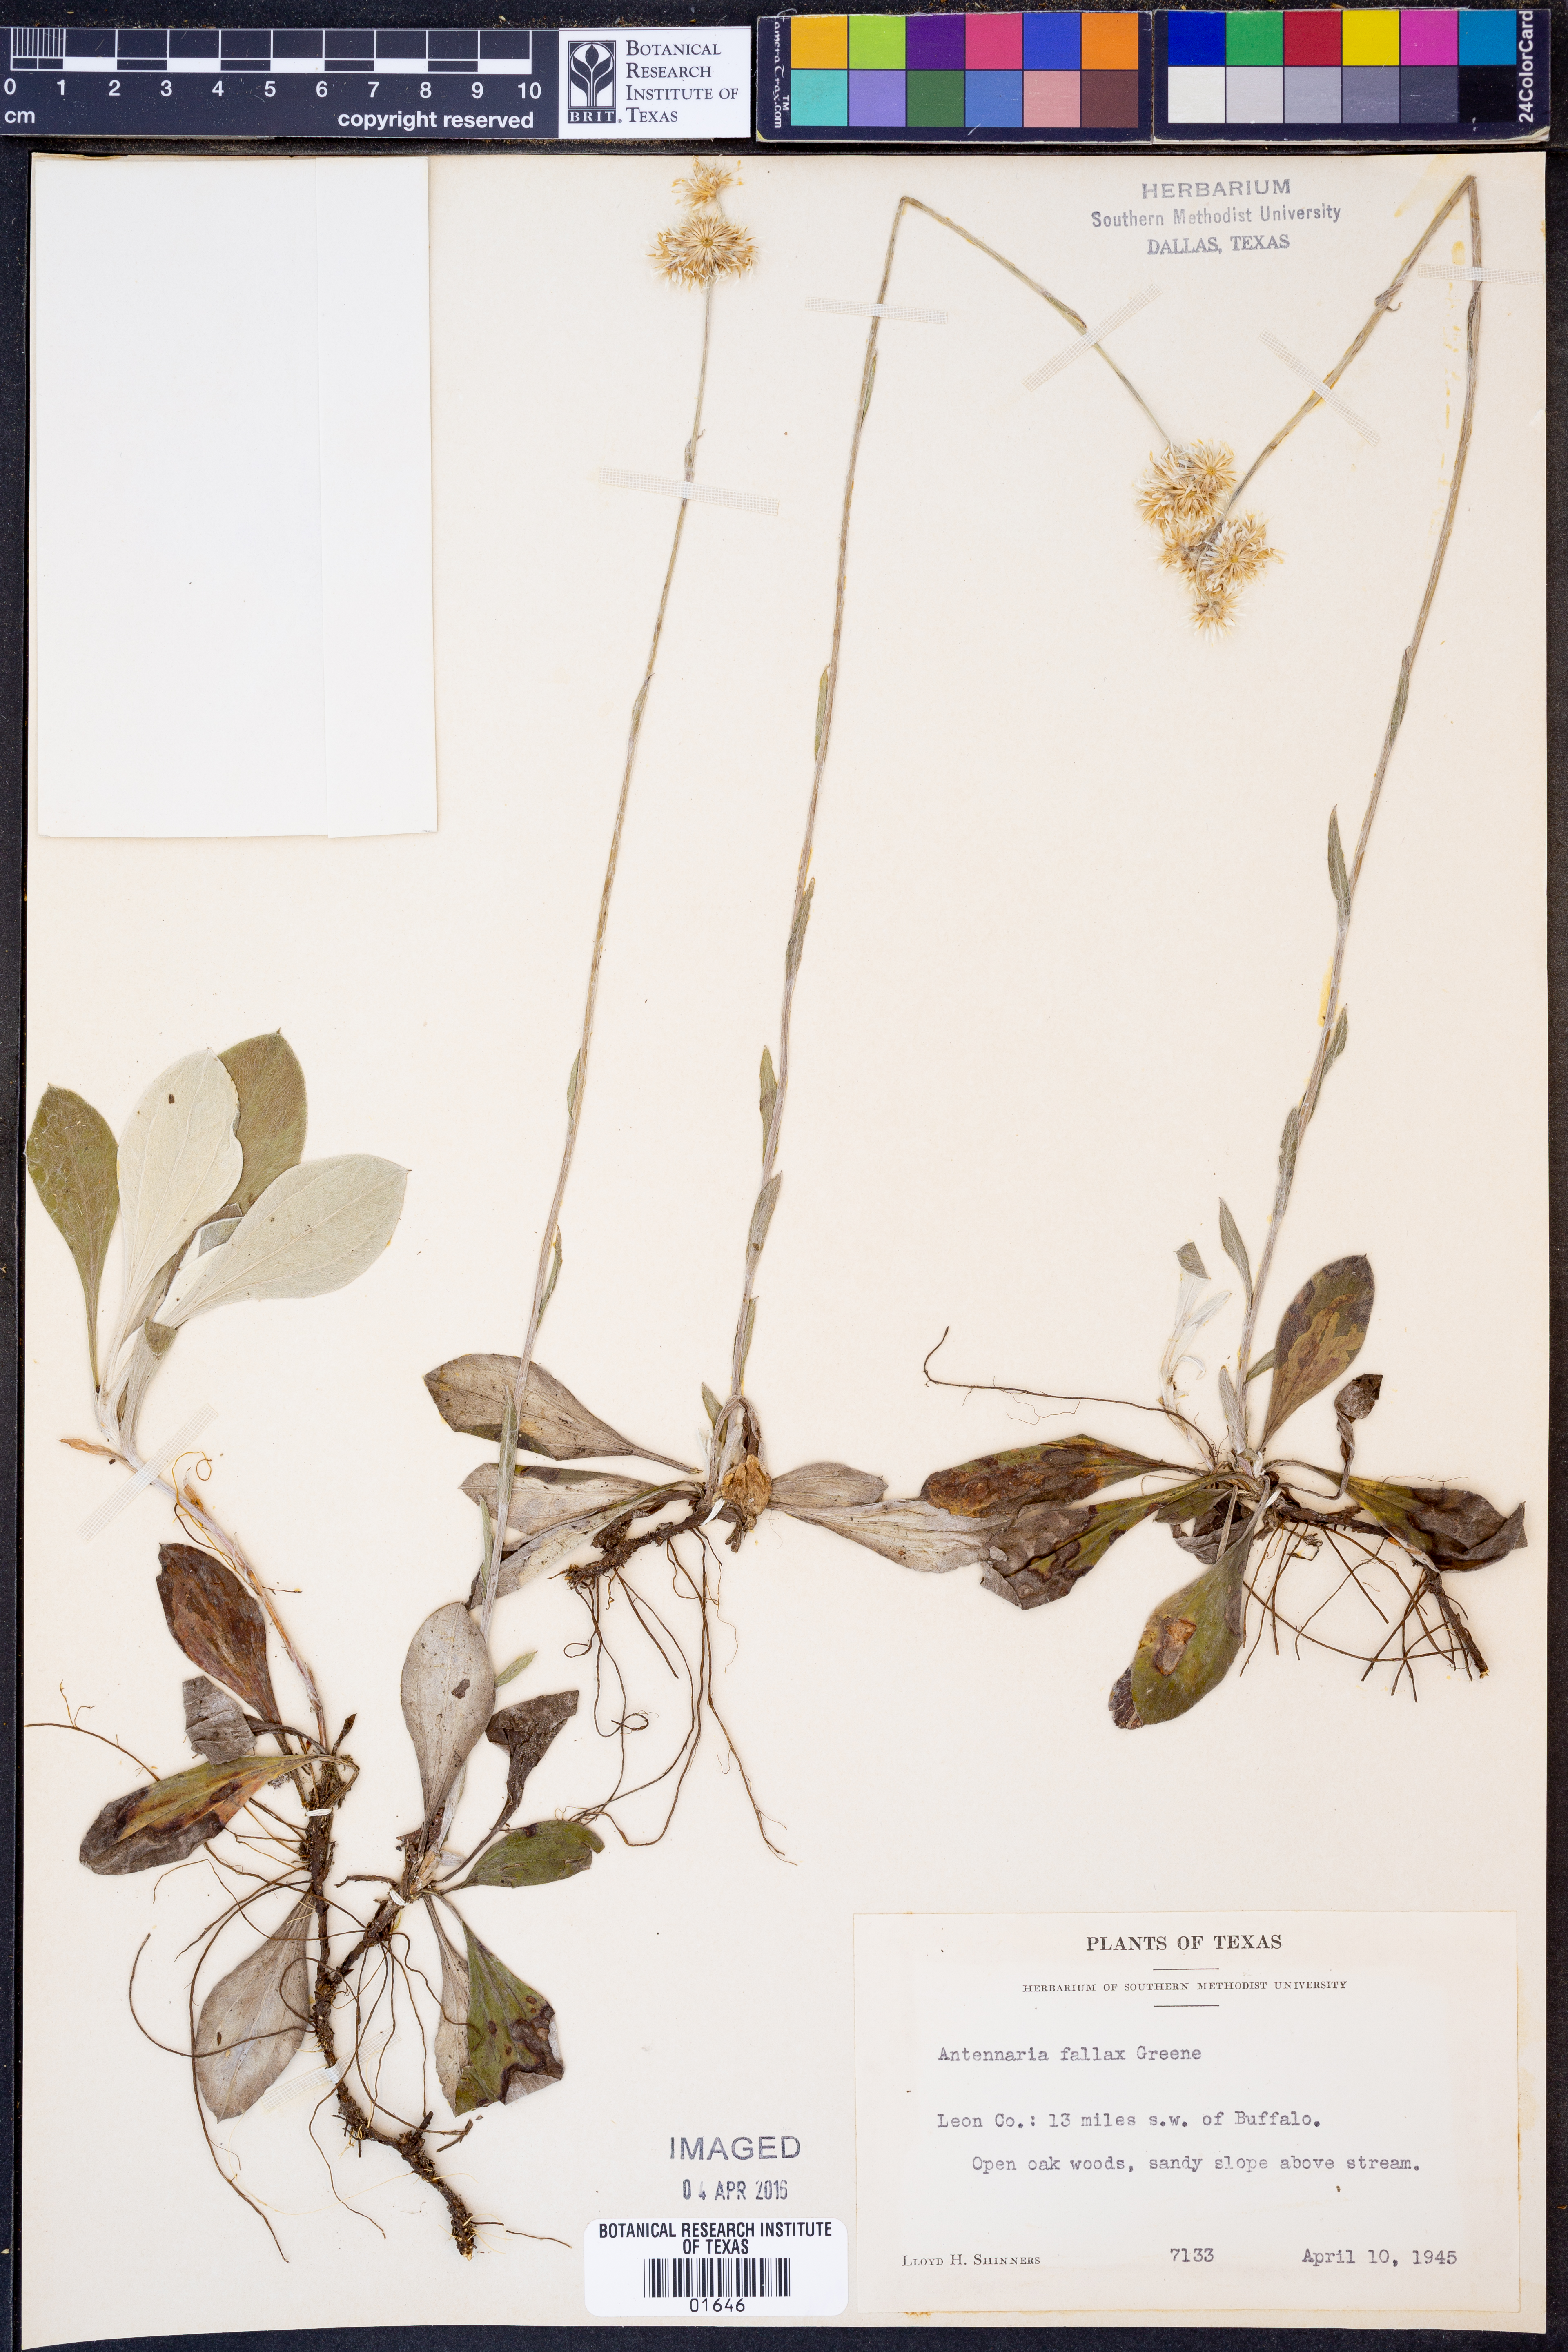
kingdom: Plantae
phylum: Tracheophyta
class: Magnoliopsida
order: Asterales
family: Asteraceae
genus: Antennaria
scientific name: Antennaria parlinii
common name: Parlin's pussytoes
